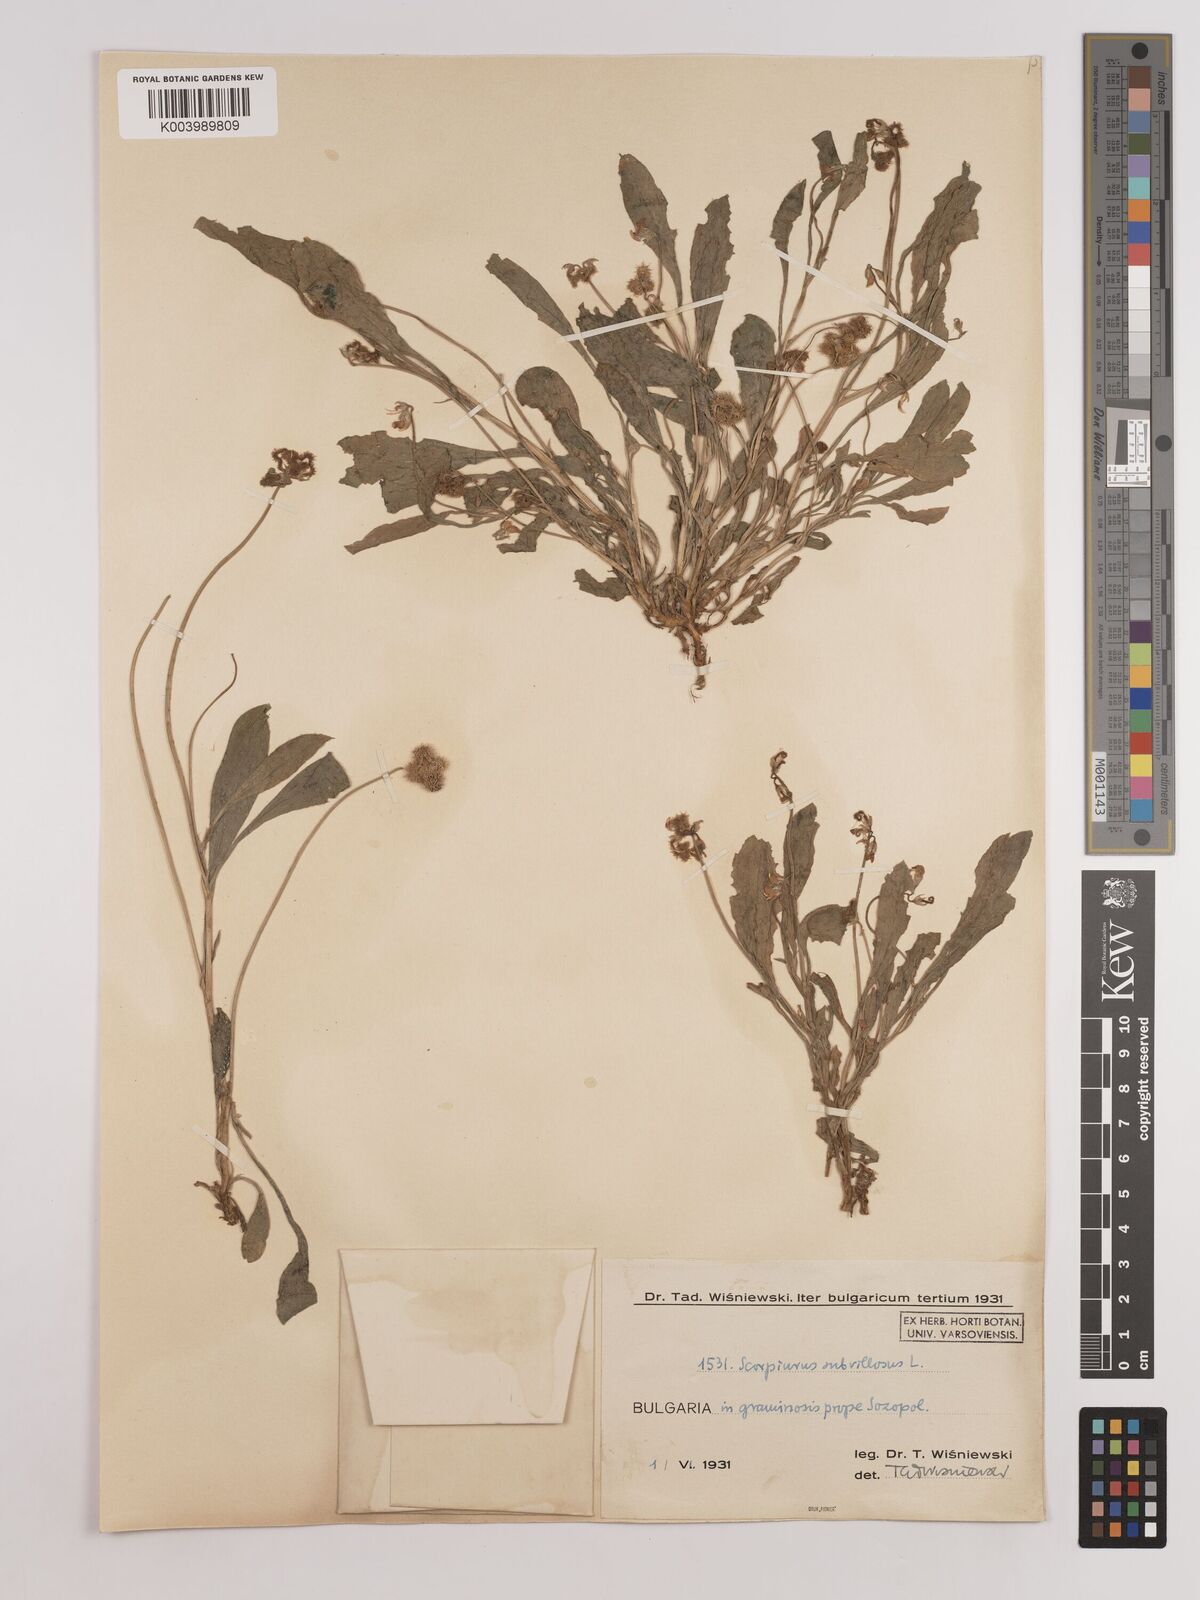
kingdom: Plantae
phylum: Tracheophyta
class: Magnoliopsida
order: Fabales
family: Fabaceae
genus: Scorpiurus
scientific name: Scorpiurus muricatus
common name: Caterpillar-plant
